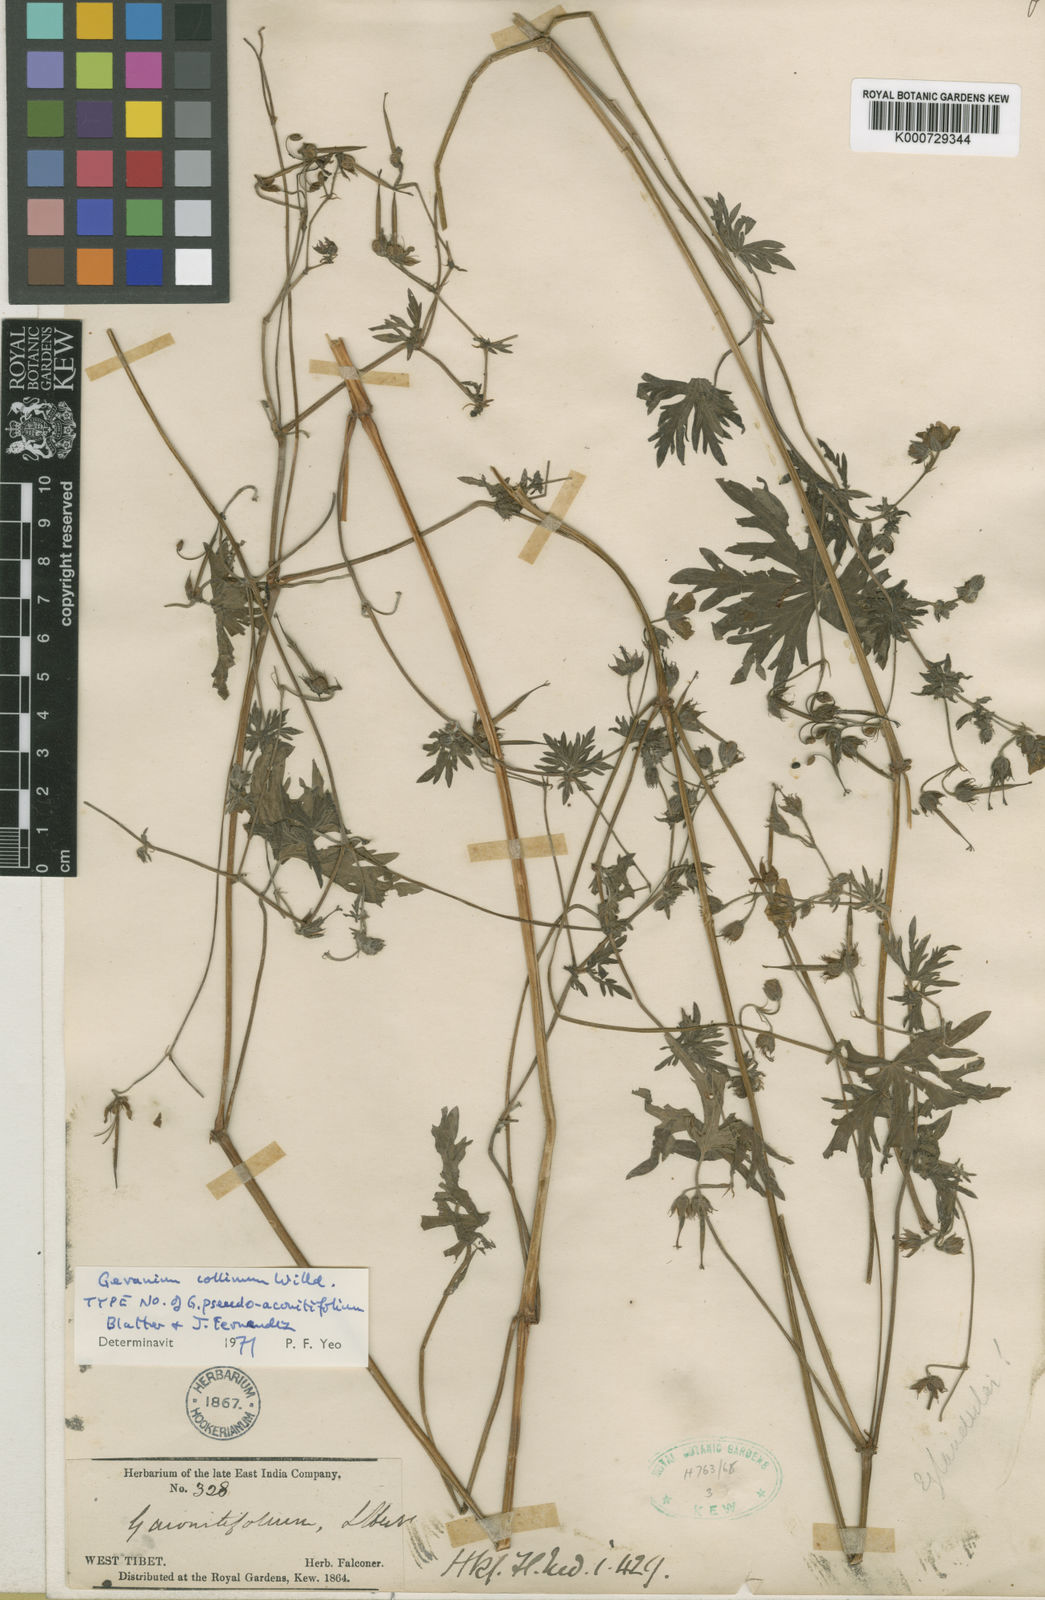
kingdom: Plantae
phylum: Tracheophyta
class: Magnoliopsida
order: Geraniales
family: Geraniaceae
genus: Geranium
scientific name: Geranium collinum
